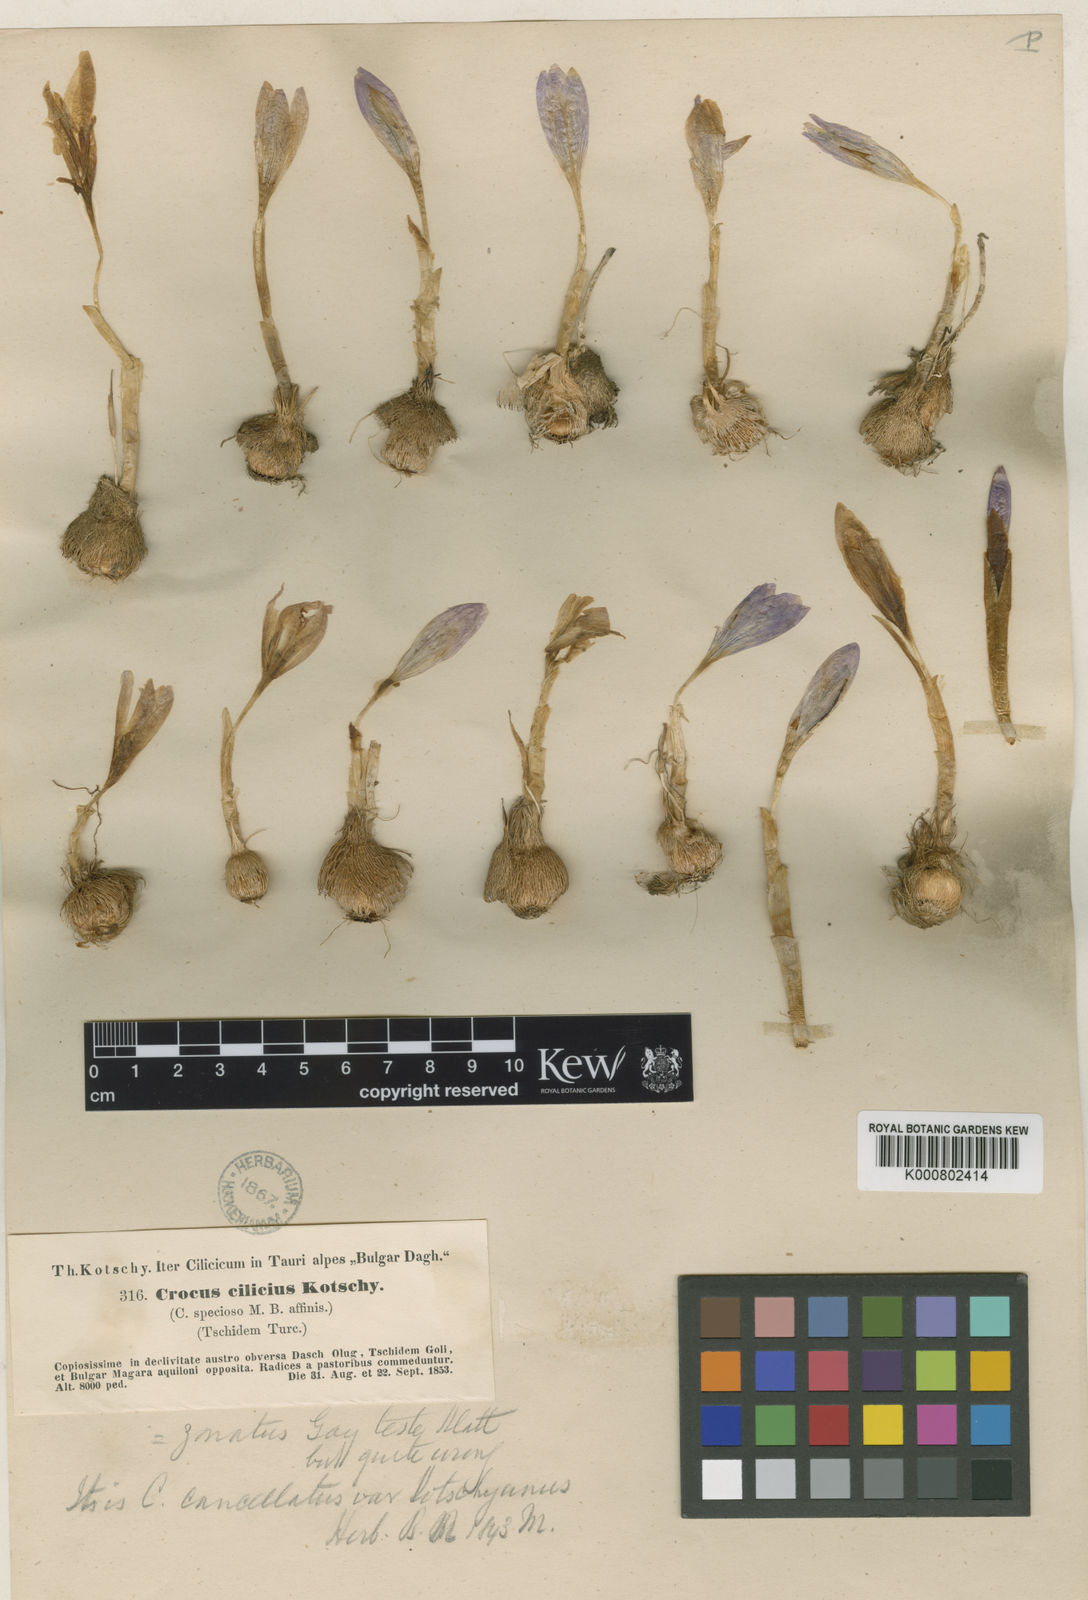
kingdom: Plantae
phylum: Tracheophyta
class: Liliopsida
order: Asparagales
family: Iridaceae
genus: Crocus
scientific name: Crocus cancellatus
